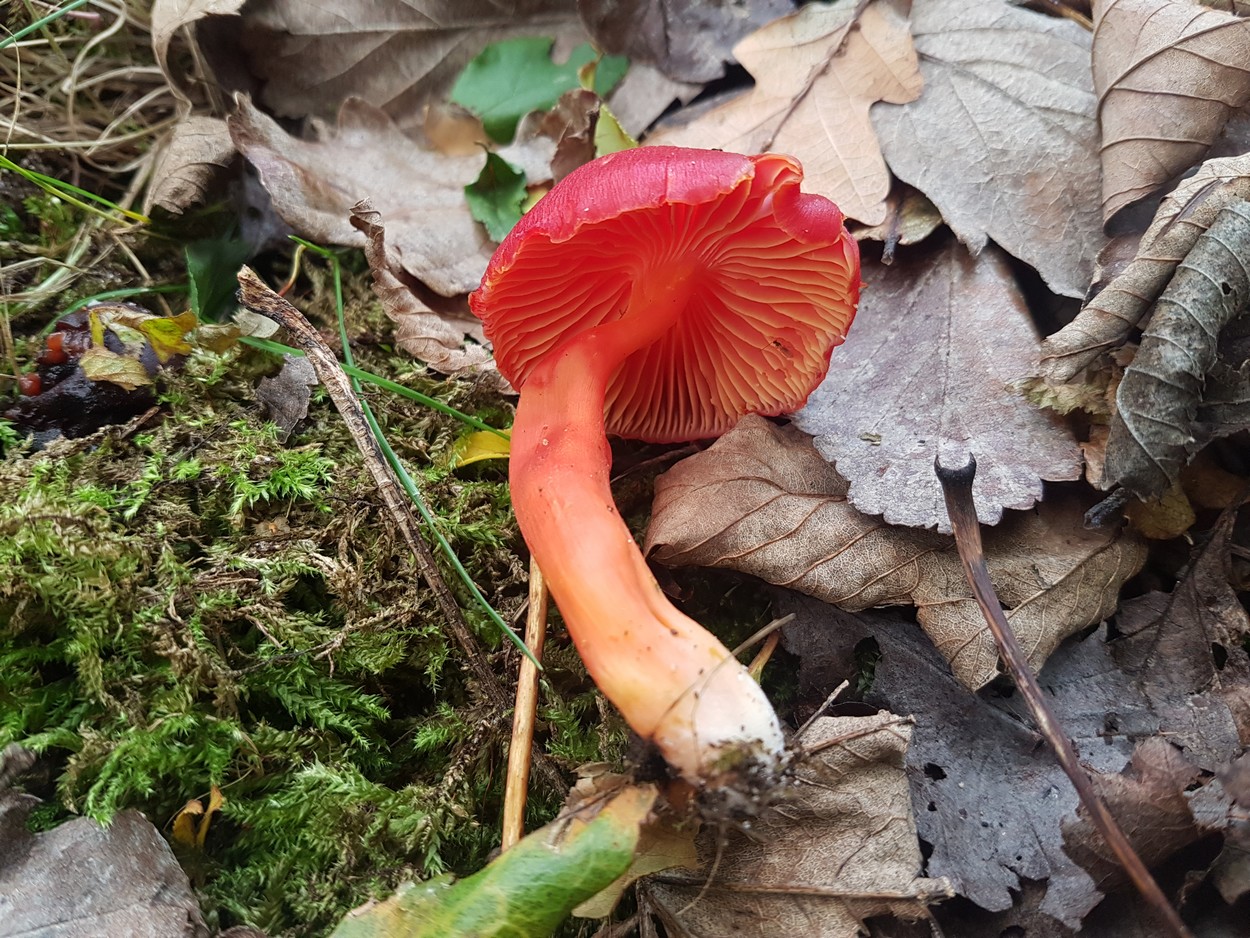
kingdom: Fungi
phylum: Basidiomycota
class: Agaricomycetes
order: Agaricales
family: Hygrophoraceae
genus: Hygrocybe
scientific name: Hygrocybe coccinea
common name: cinnober-vokshat
